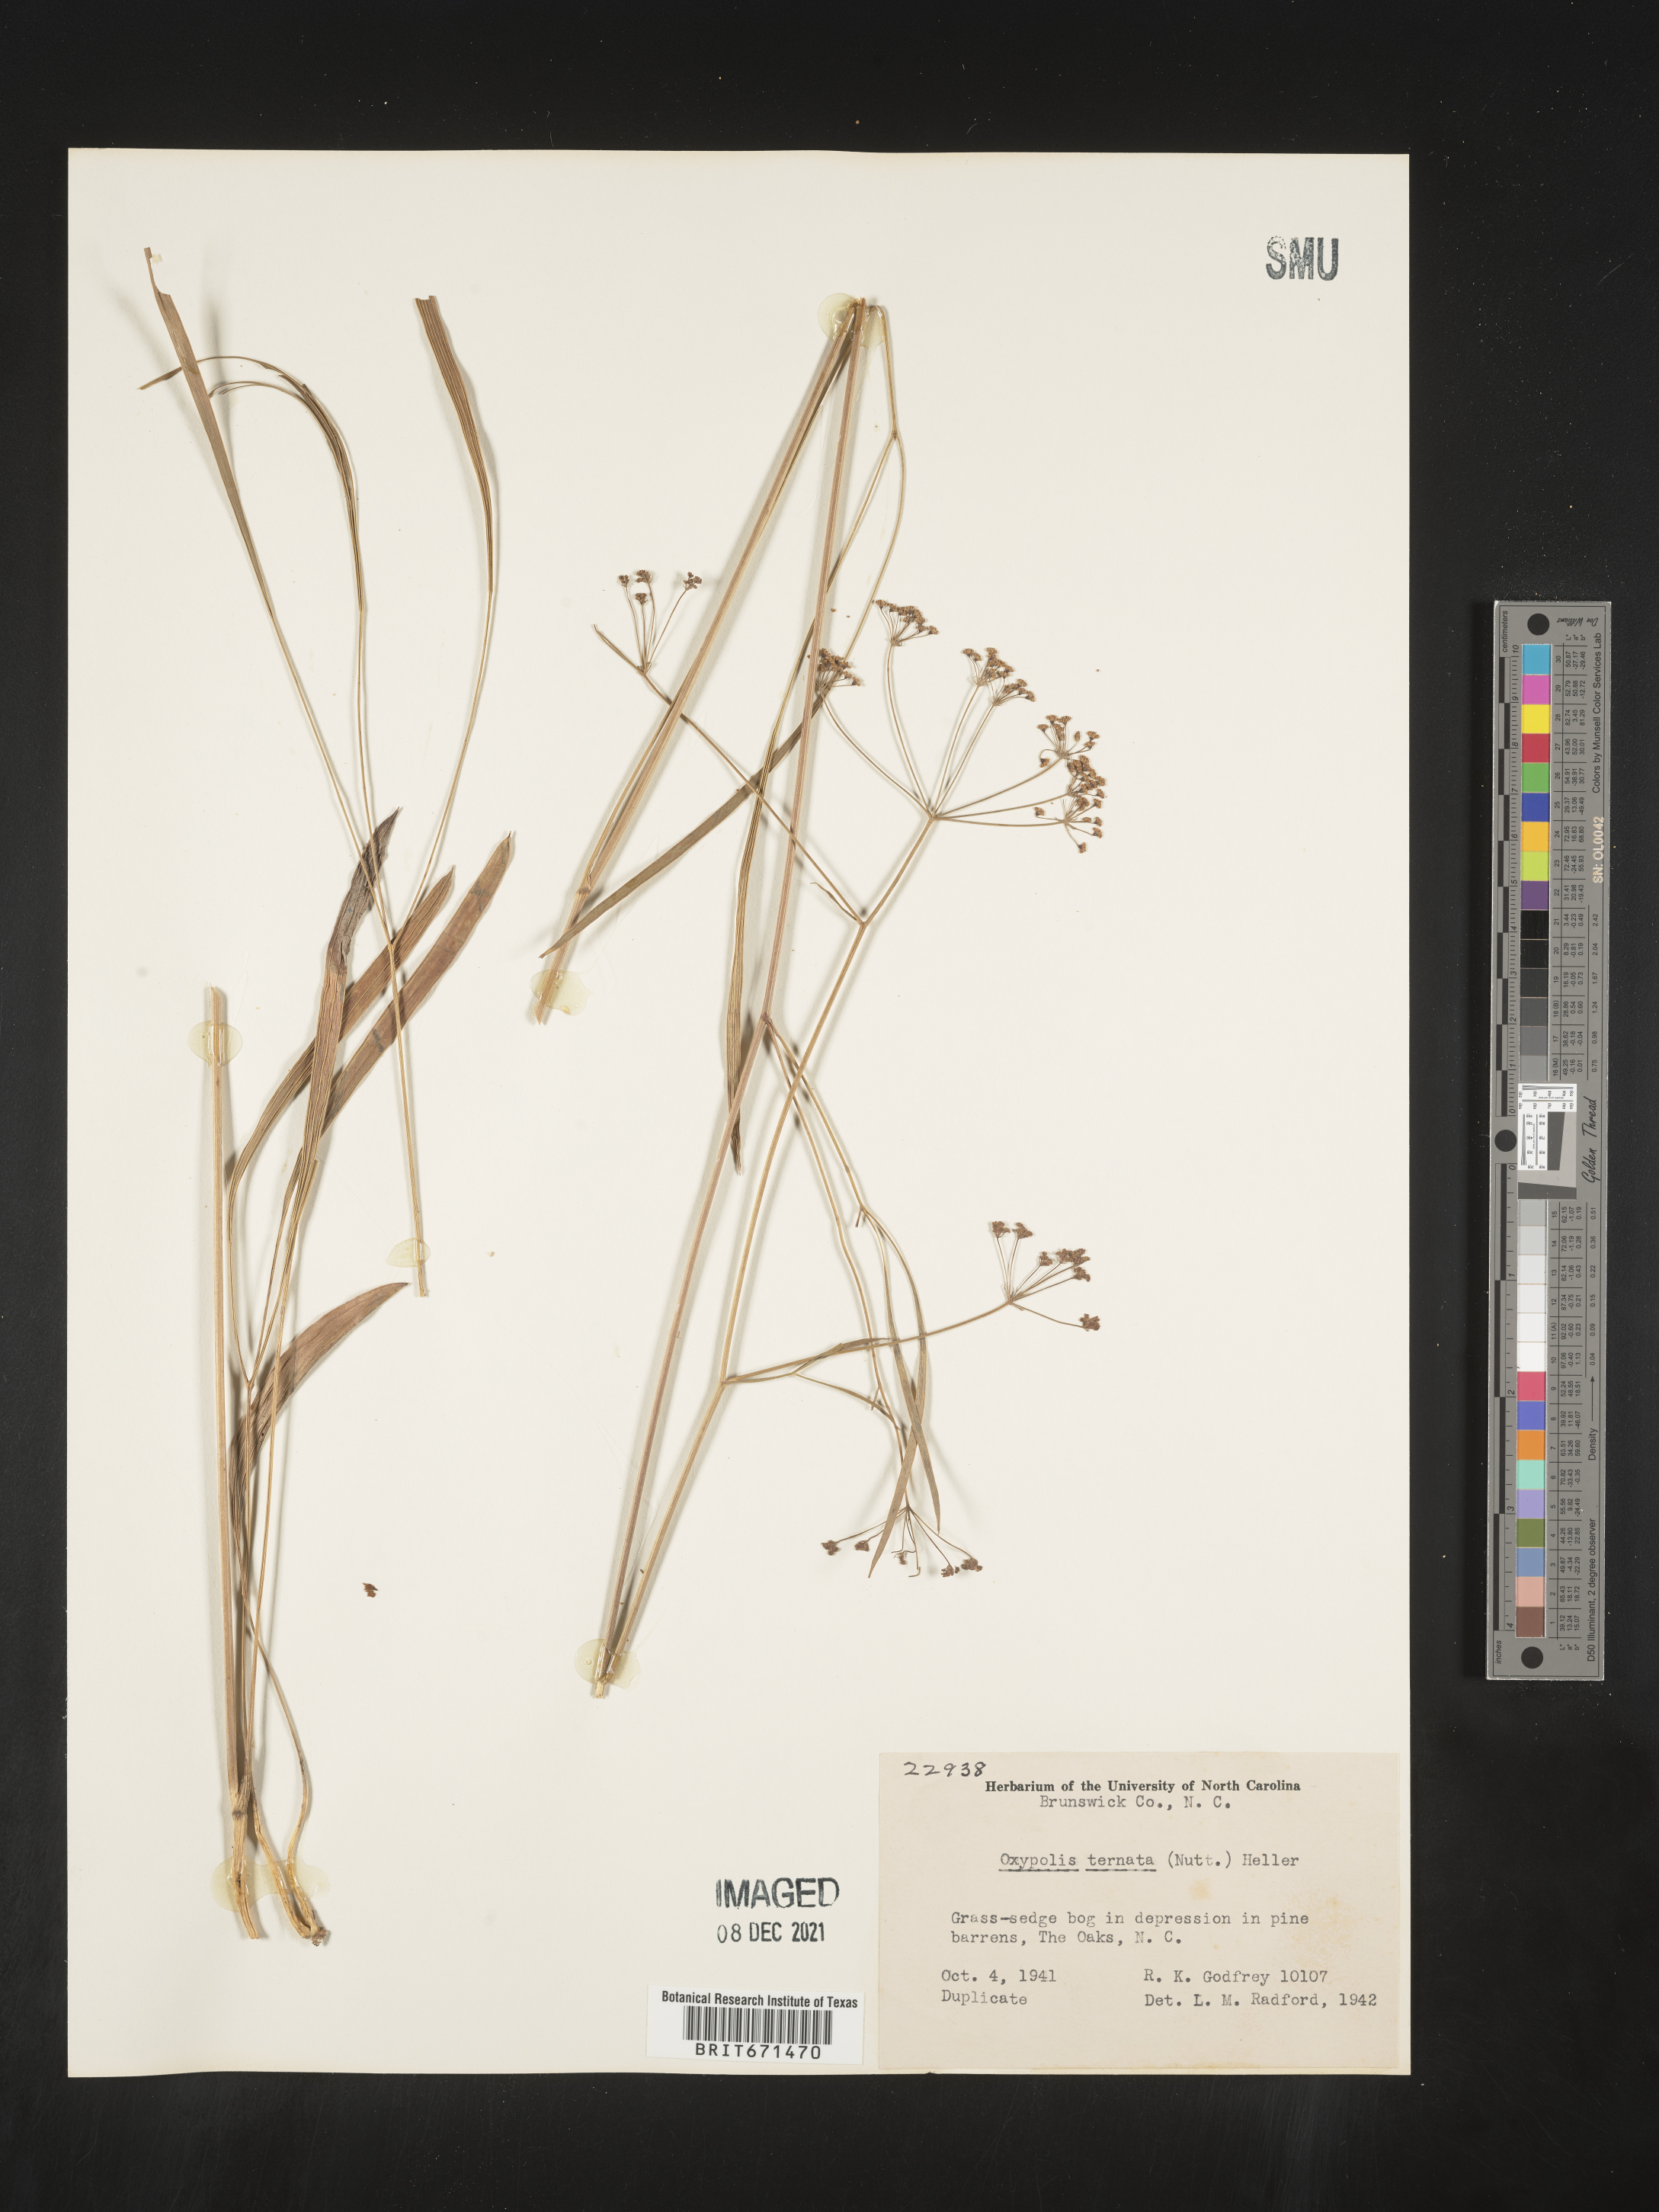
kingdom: Plantae
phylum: Tracheophyta
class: Magnoliopsida
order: Apiales
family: Apiaceae
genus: Oxypolis
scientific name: Oxypolis ternata
